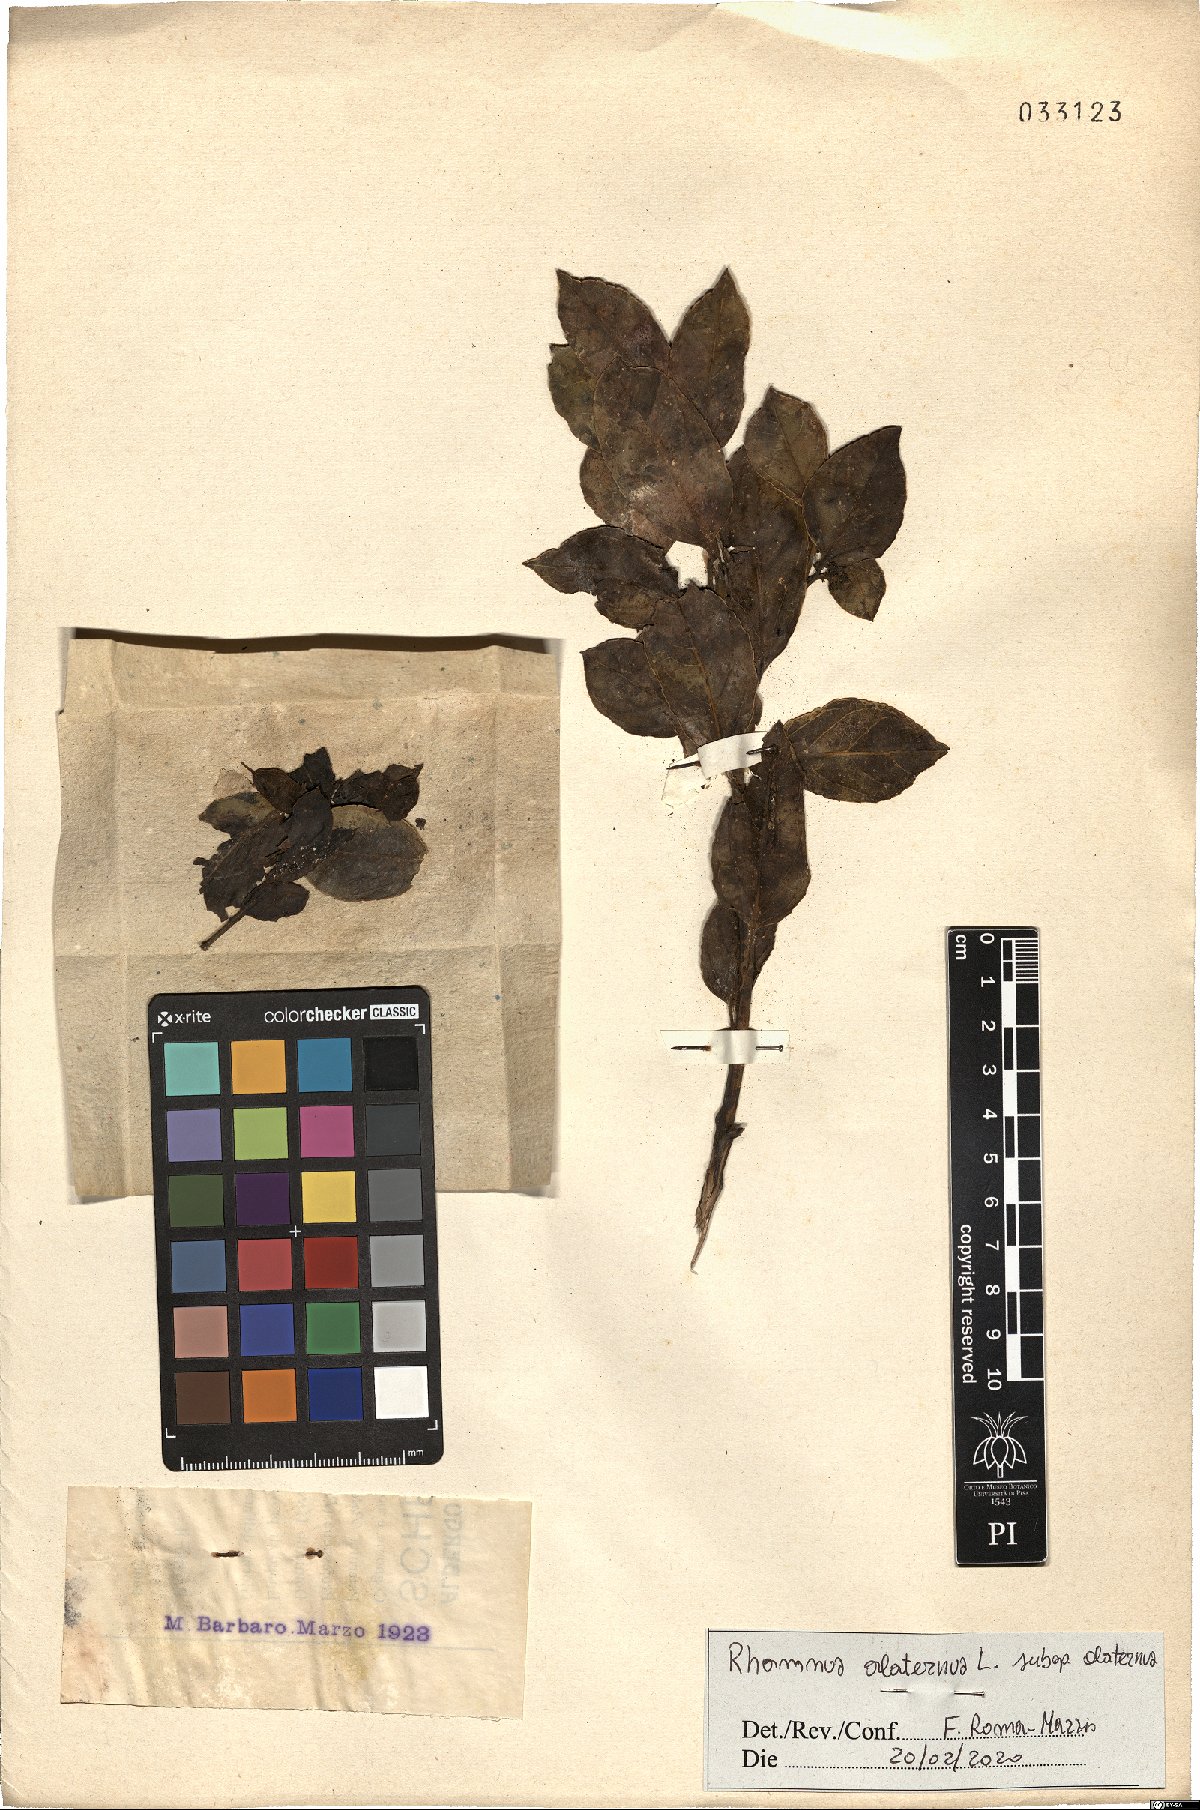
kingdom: Plantae
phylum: Tracheophyta
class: Magnoliopsida
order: Rosales
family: Rhamnaceae
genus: Rhamnus
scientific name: Rhamnus alaternus
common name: Mediterranean buckthorn
